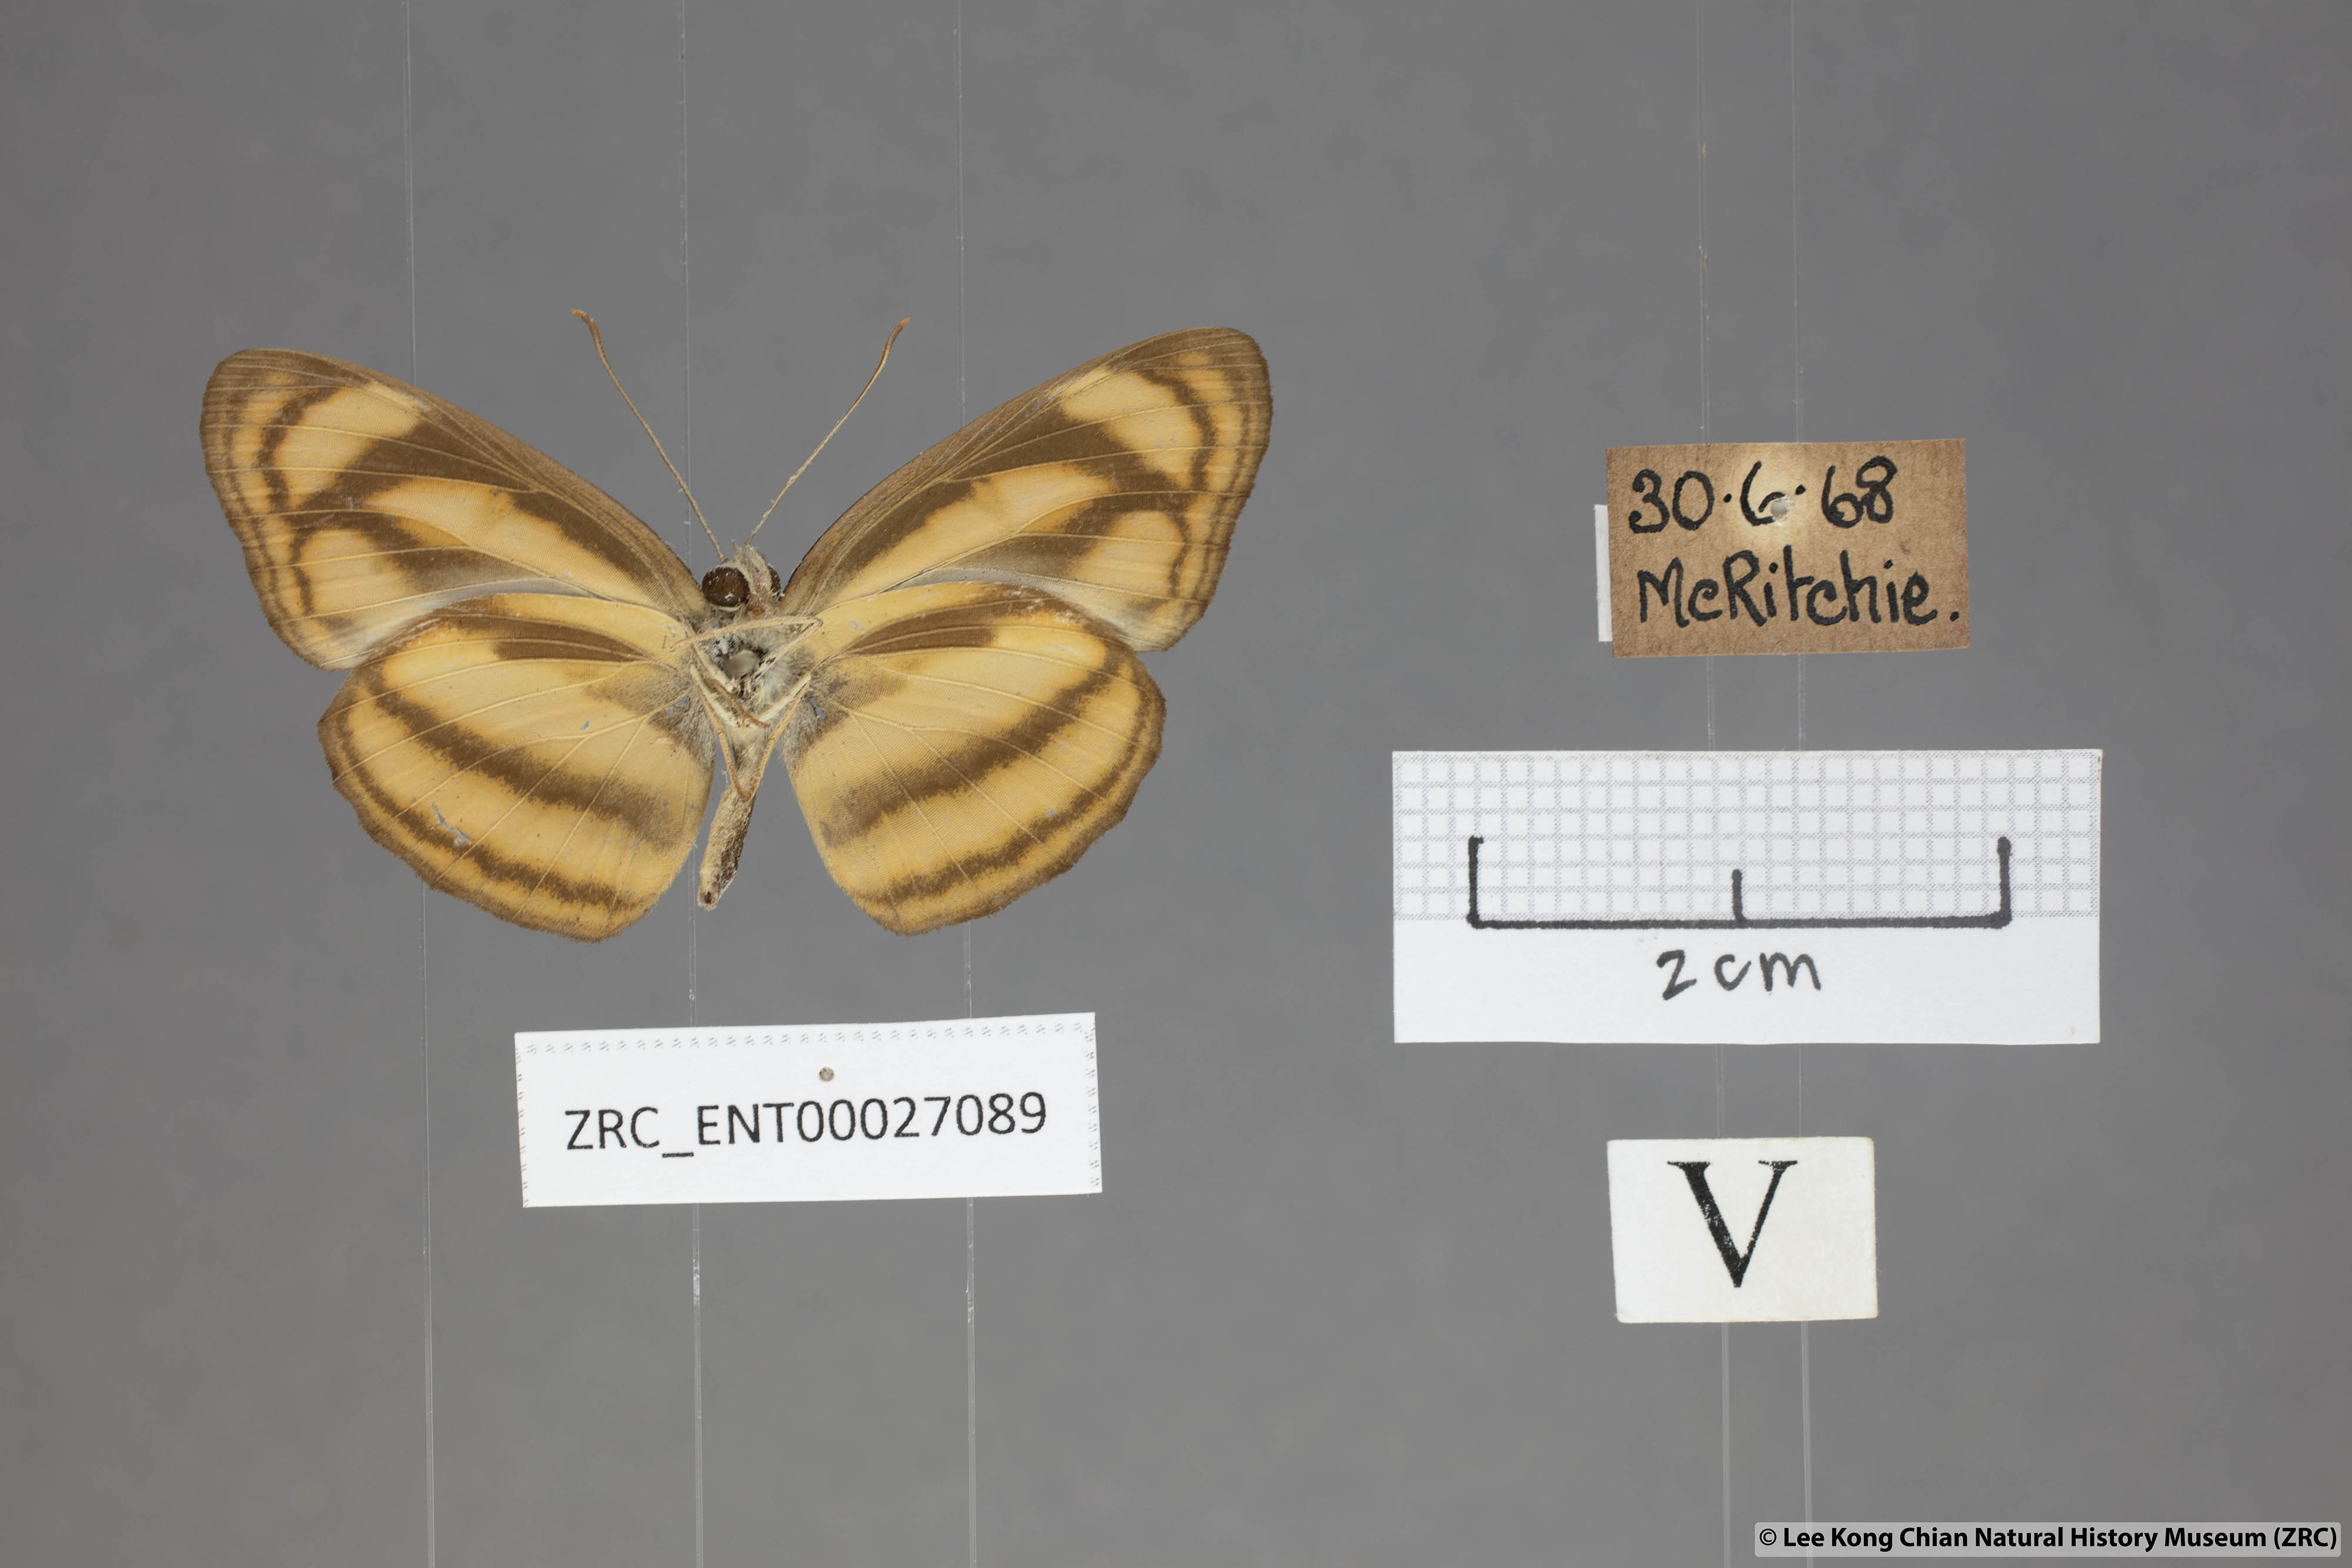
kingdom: Animalia
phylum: Arthropoda
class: Insecta
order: Lepidoptera
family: Nymphalidae
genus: Lasippa
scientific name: Lasippa tiga
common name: Malayan lascar
